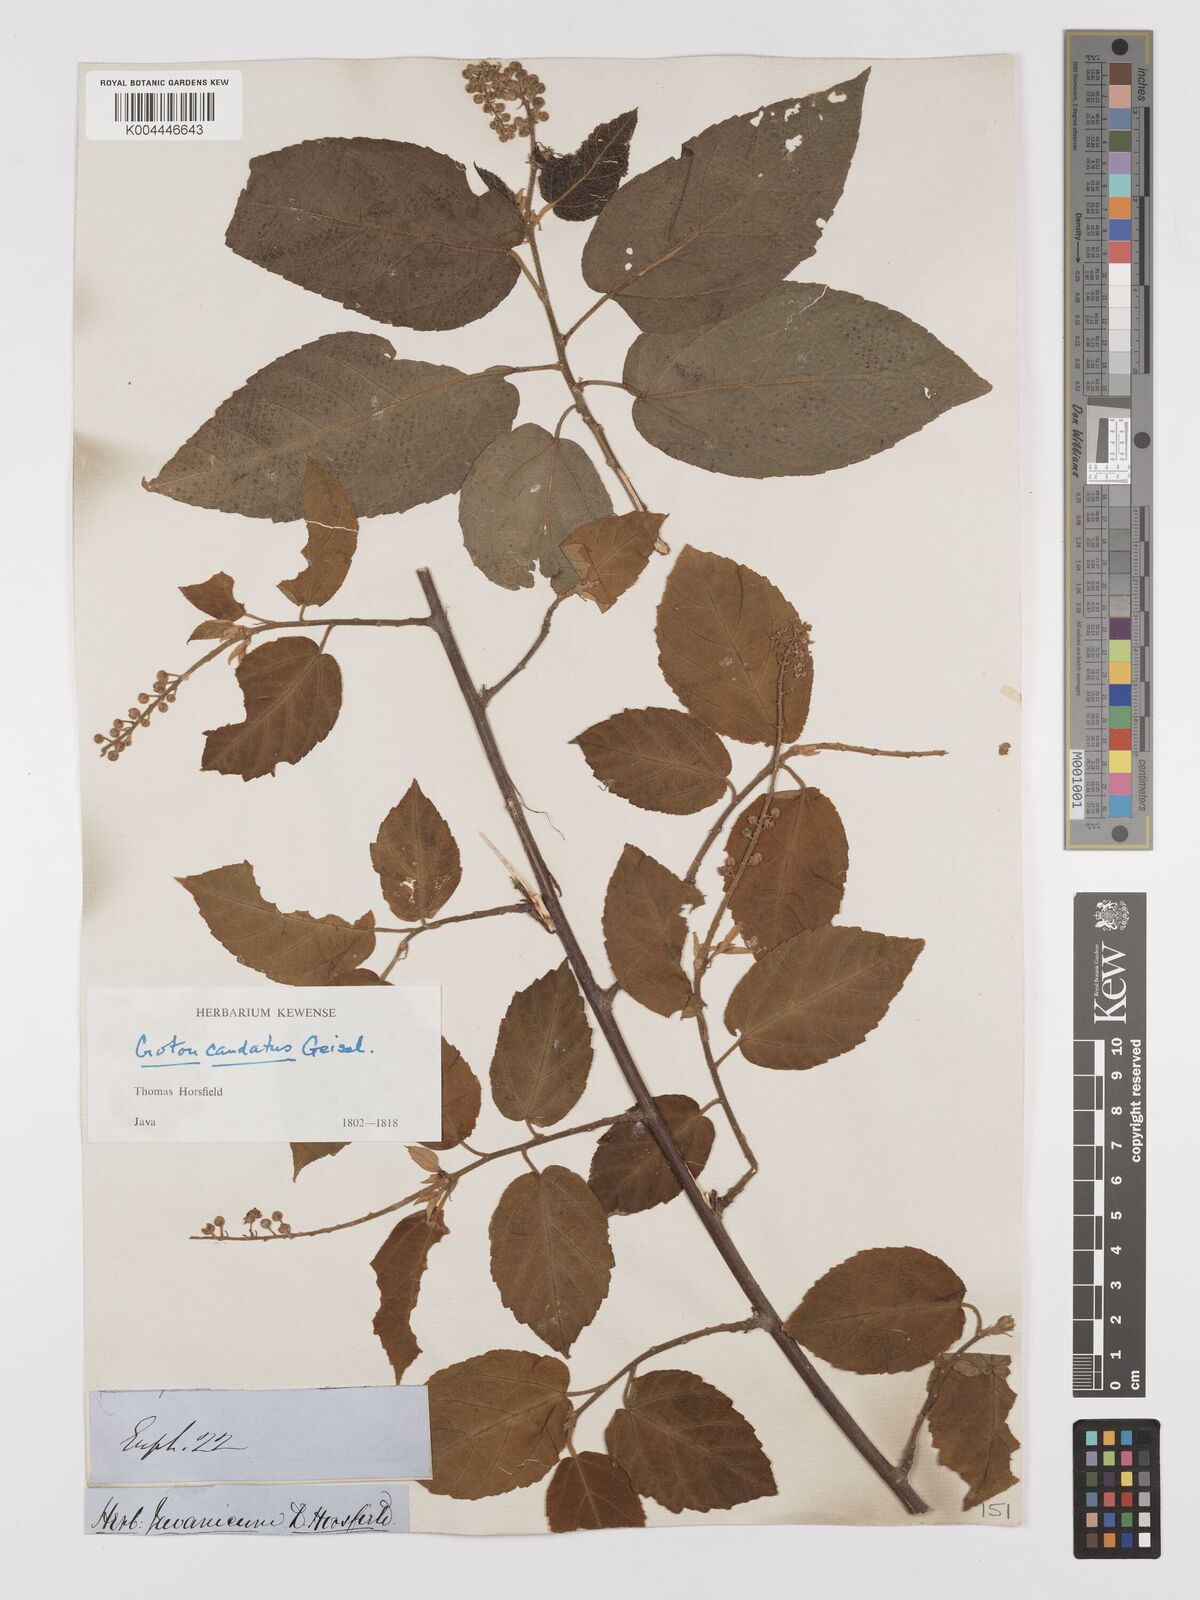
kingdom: Plantae
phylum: Tracheophyta
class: Magnoliopsida
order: Malpighiales
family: Euphorbiaceae
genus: Croton
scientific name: Croton caudatus
